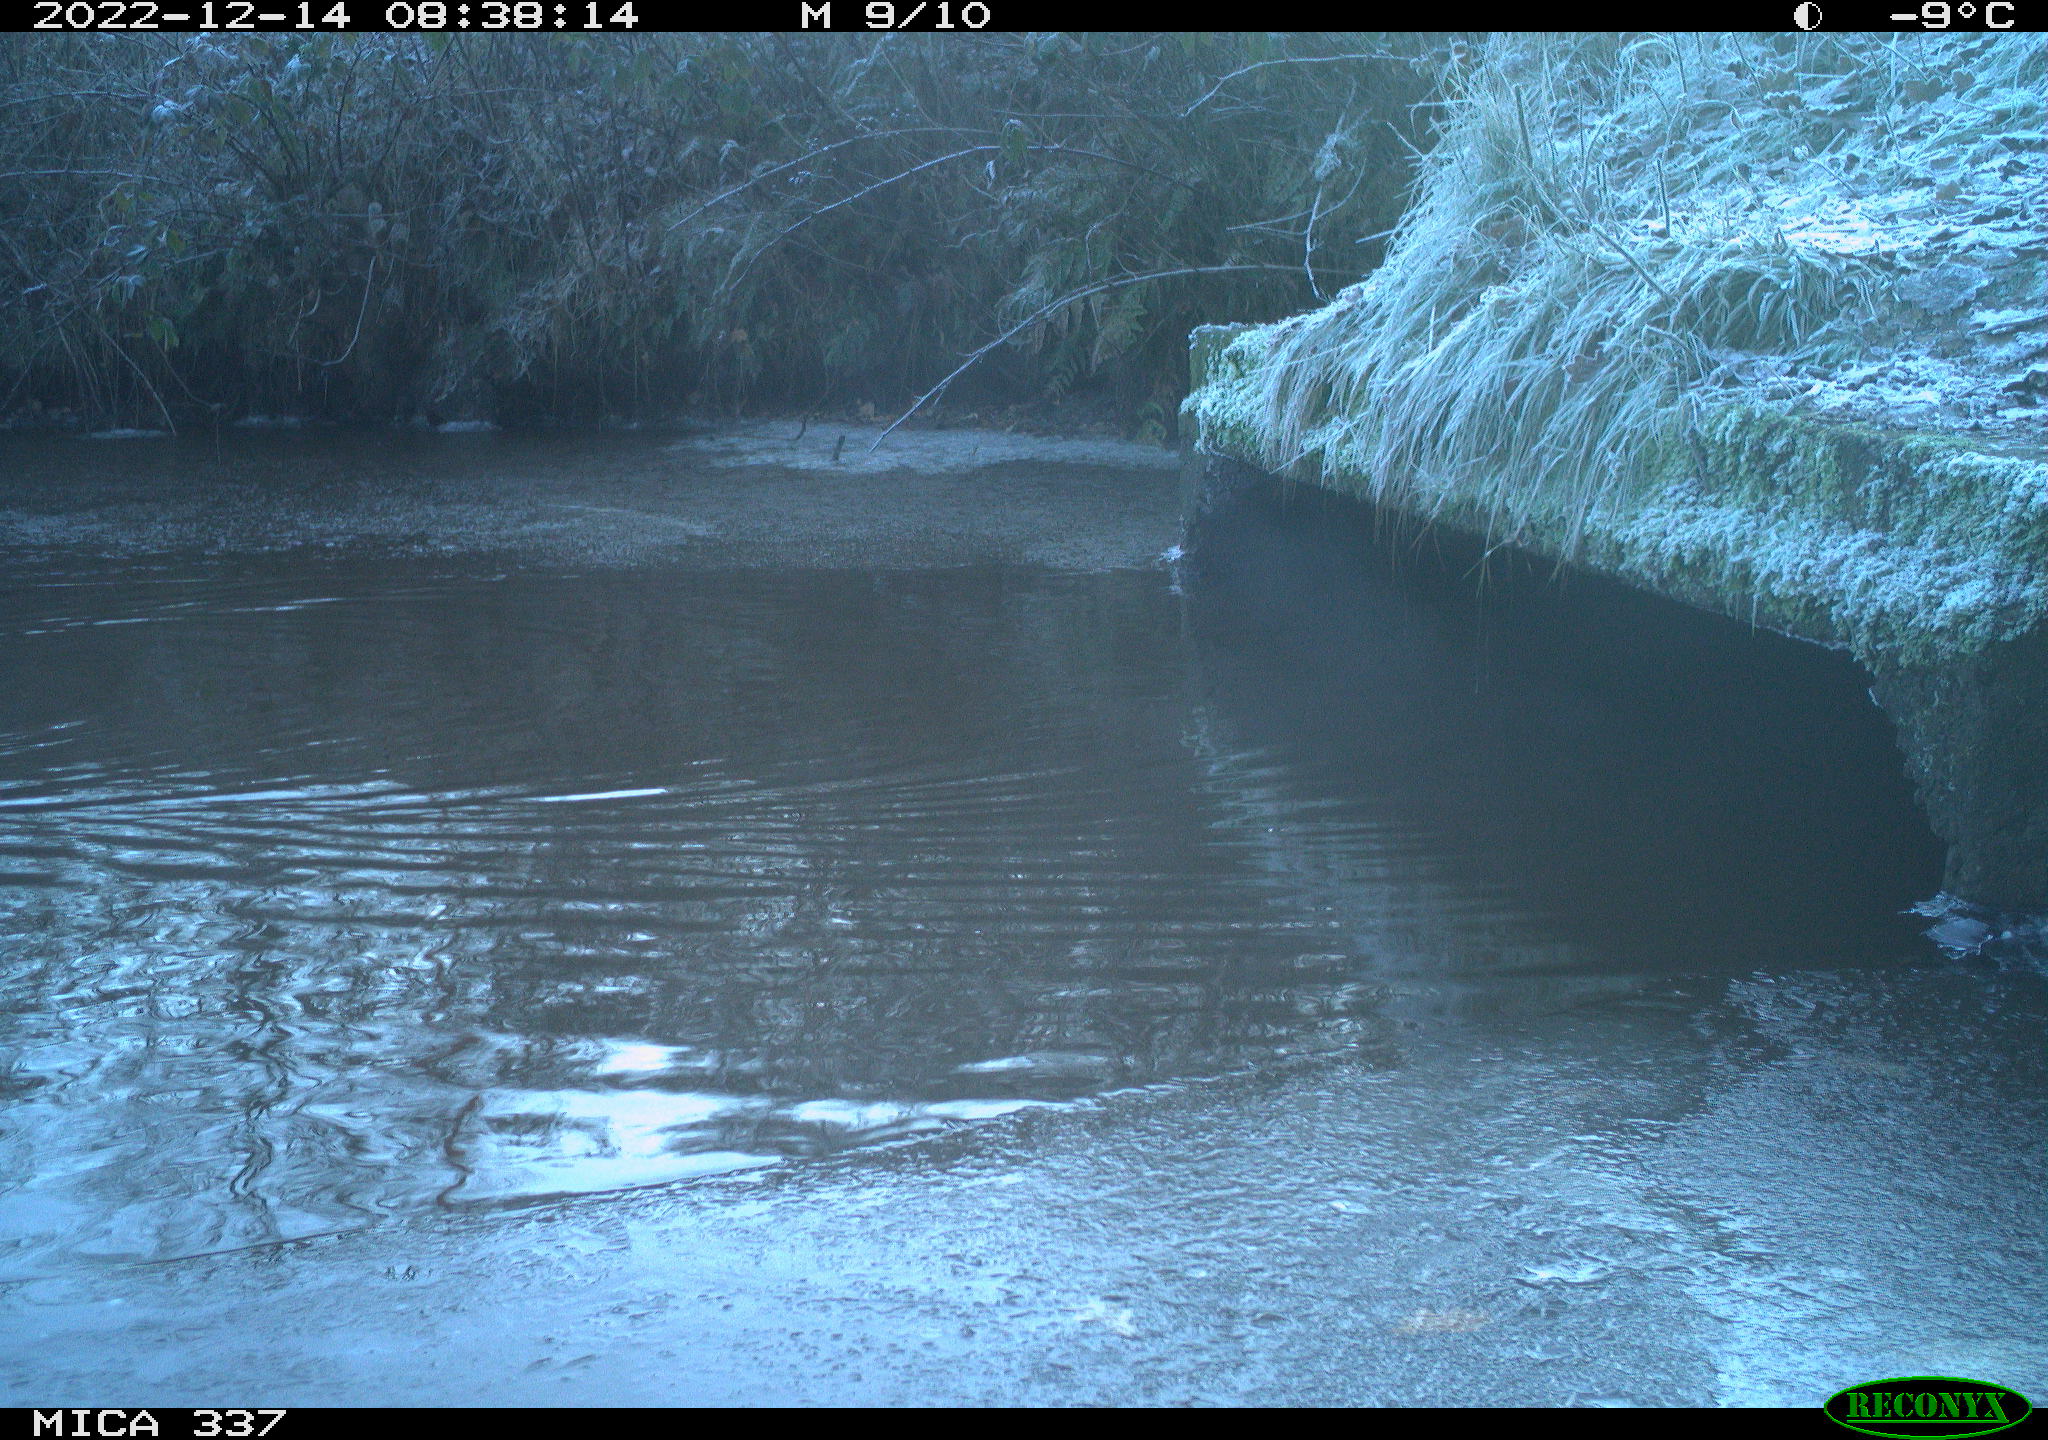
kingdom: Animalia
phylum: Chordata
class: Aves
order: Anseriformes
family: Anatidae
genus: Anas
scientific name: Anas
